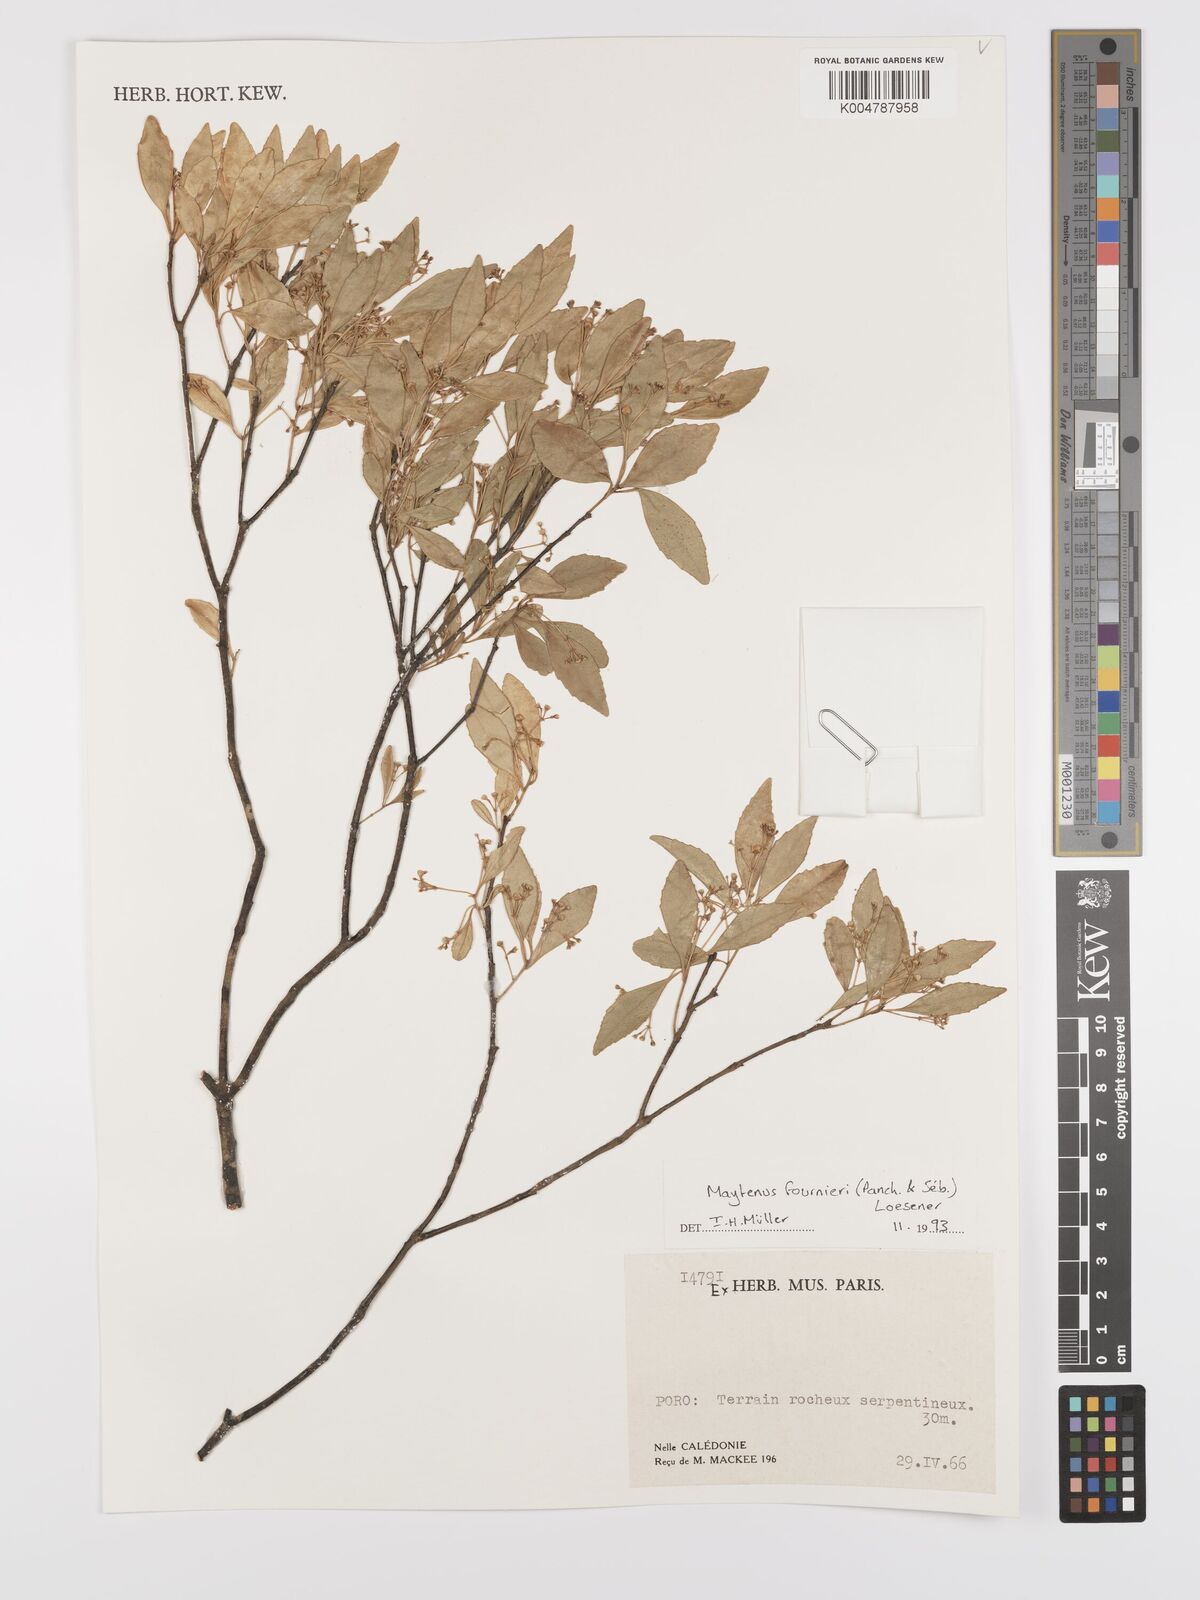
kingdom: Plantae
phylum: Tracheophyta
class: Magnoliopsida
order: Celastrales
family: Celastraceae
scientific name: Celastraceae
